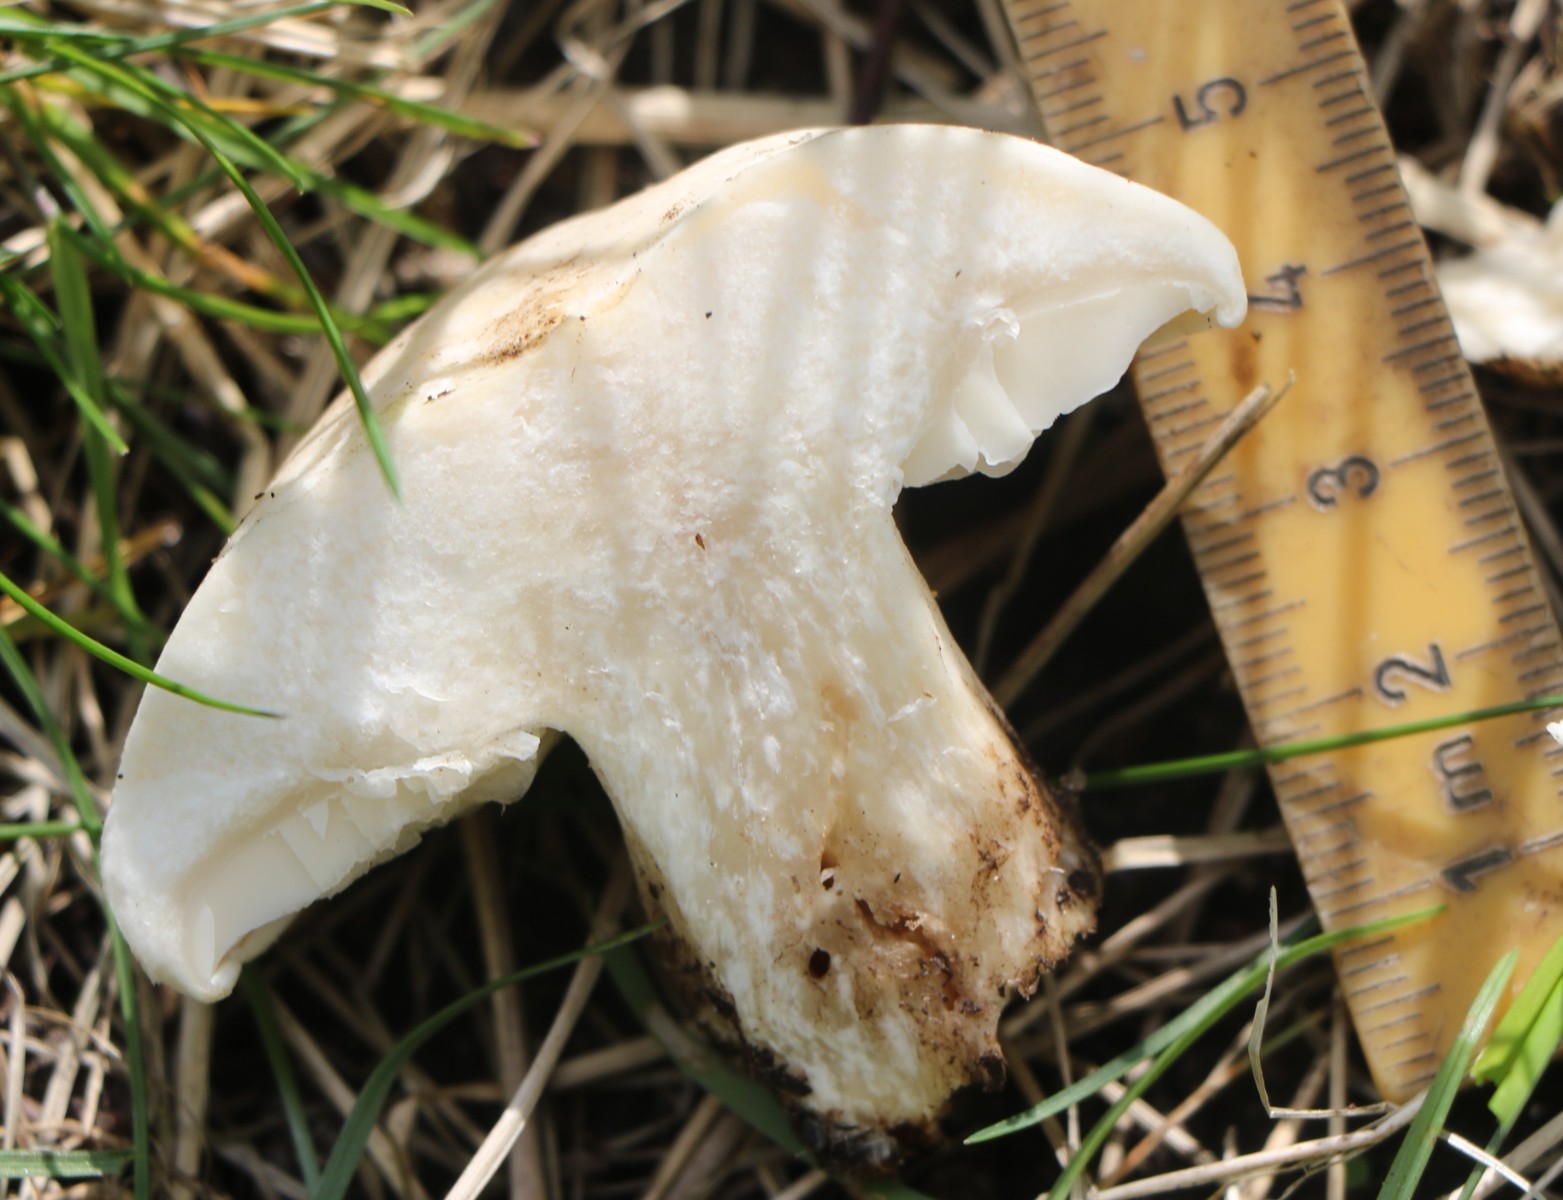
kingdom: Fungi
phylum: Basidiomycota
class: Agaricomycetes
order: Agaricales
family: Lyophyllaceae
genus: Calocybe
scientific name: Calocybe gambosa
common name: vårmusseron
